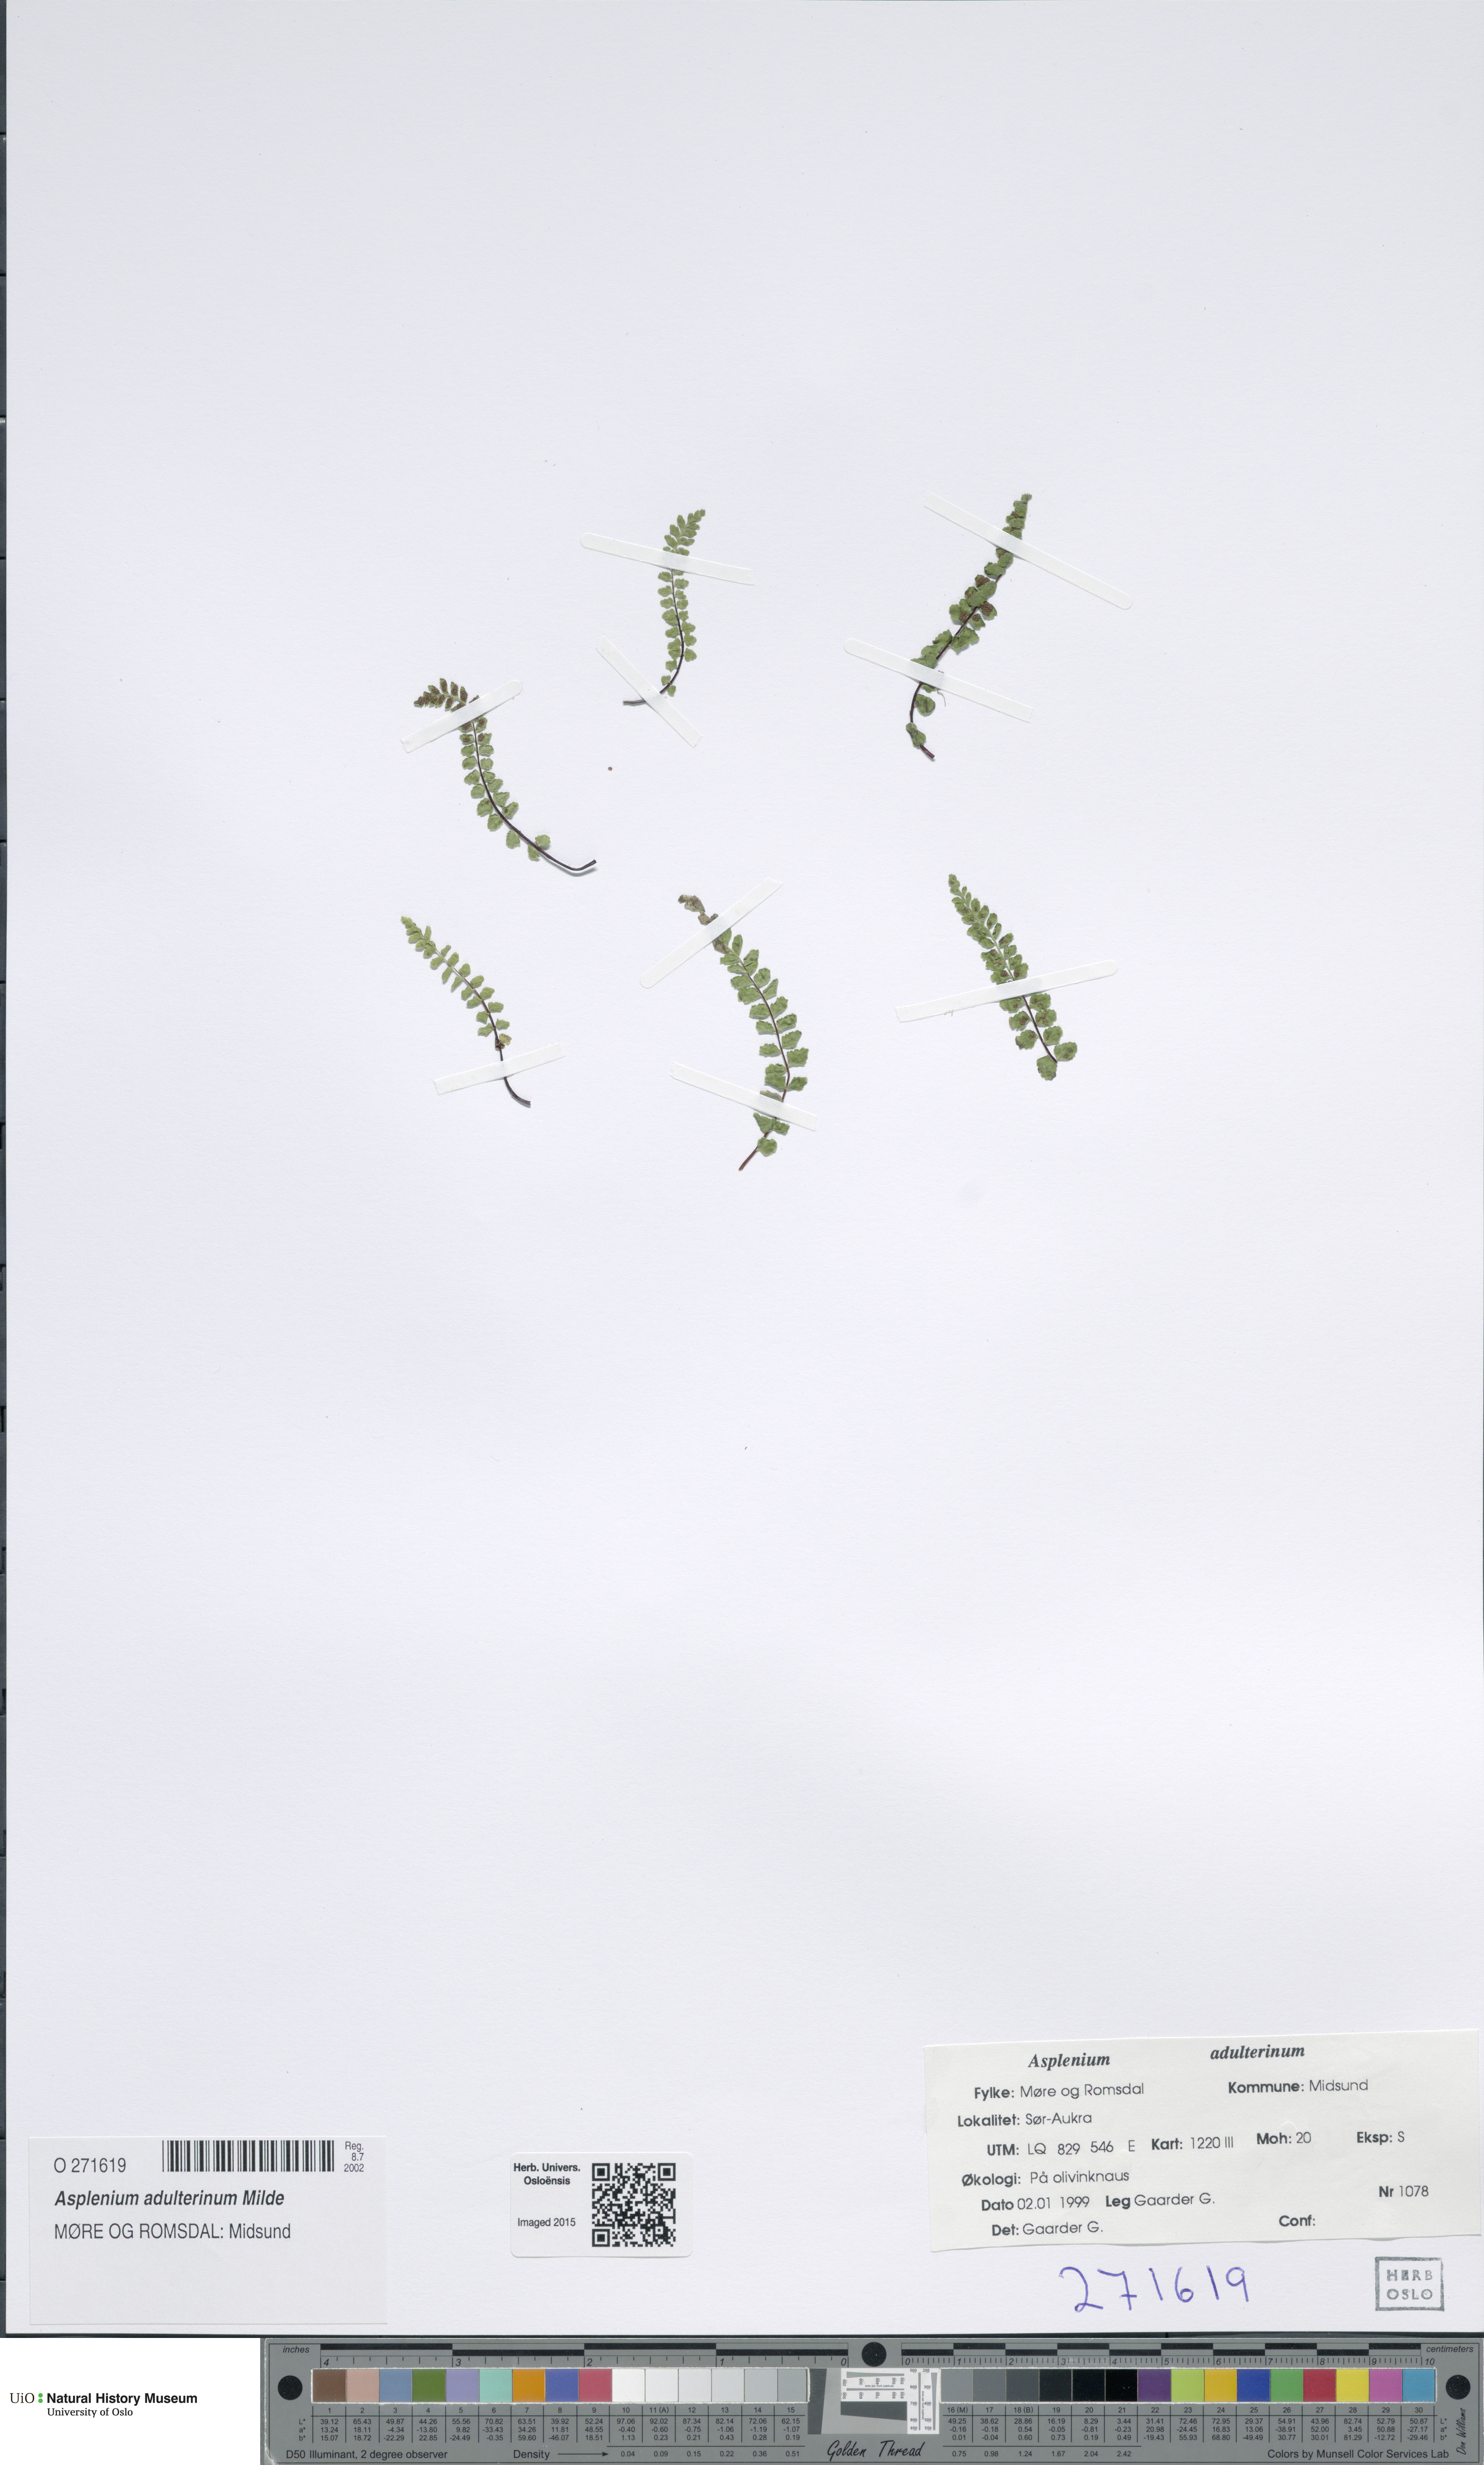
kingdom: Plantae
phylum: Tracheophyta
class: Polypodiopsida
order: Polypodiales
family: Aspleniaceae
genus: Asplenium
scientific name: Asplenium adulterinum
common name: Adulterated spleenwort
